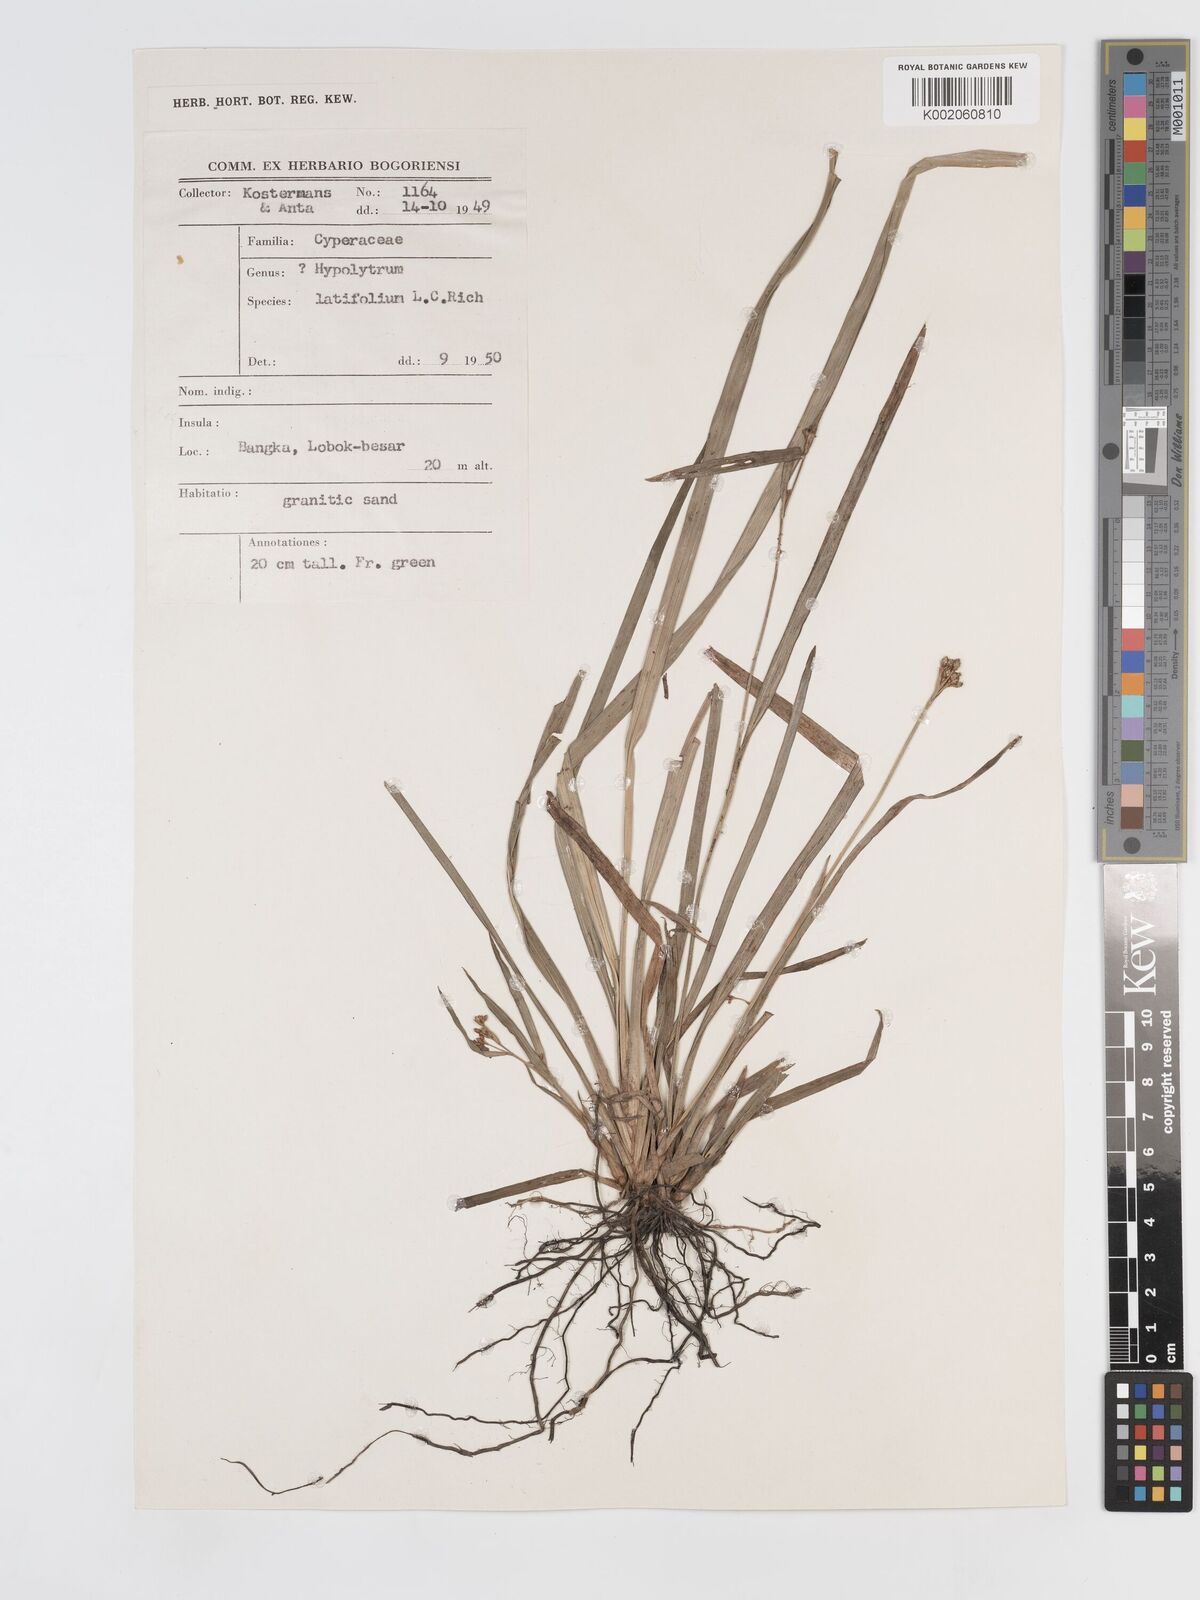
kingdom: Plantae
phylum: Tracheophyta
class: Liliopsida
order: Poales
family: Cyperaceae
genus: Hypolytrum
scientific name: Hypolytrum nemorum
